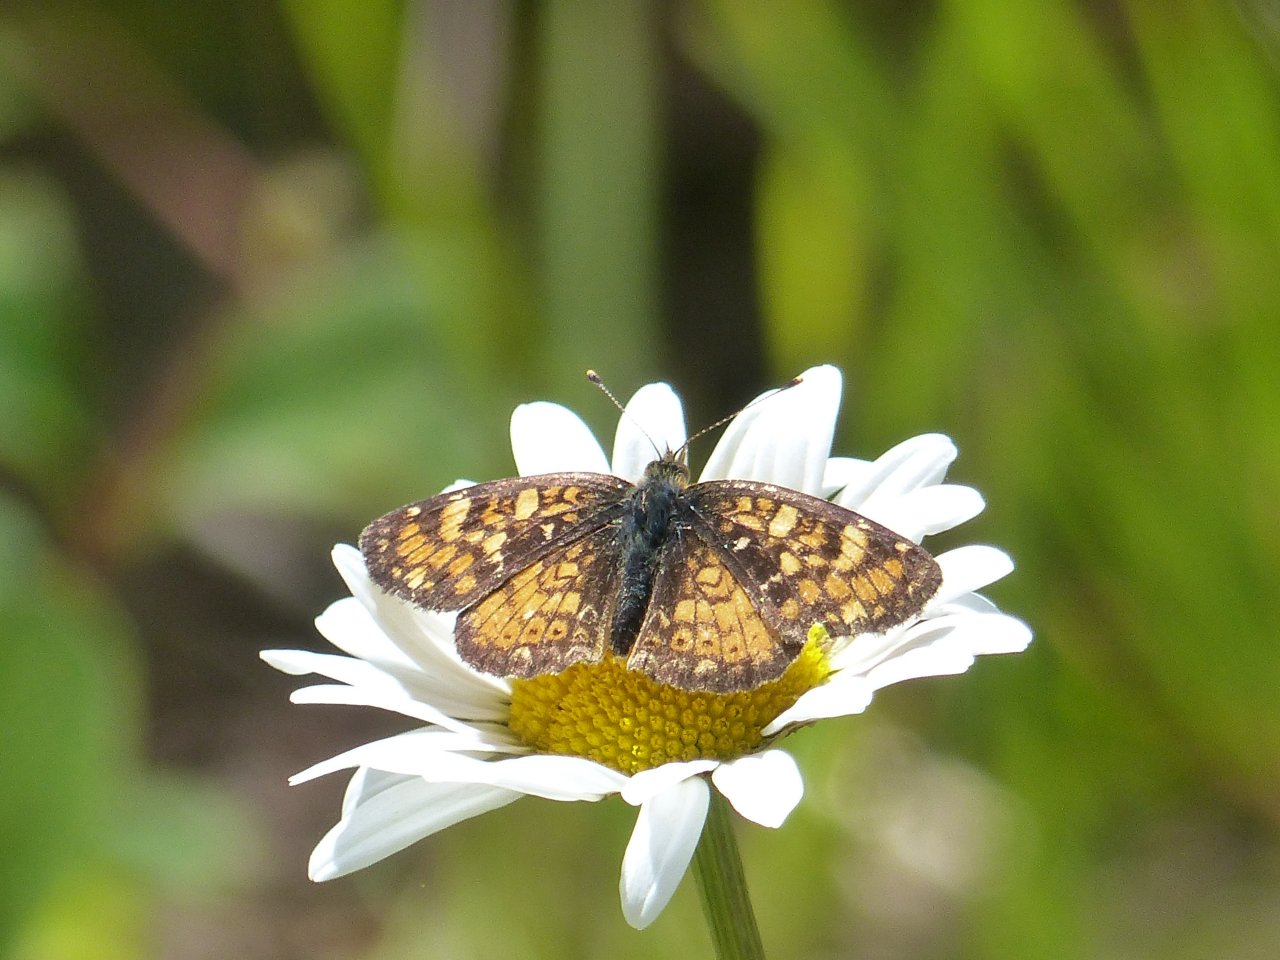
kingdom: Animalia
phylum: Arthropoda
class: Insecta
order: Lepidoptera
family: Nymphalidae
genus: Phyciodes
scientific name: Phyciodes tharos
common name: Field Crescent
